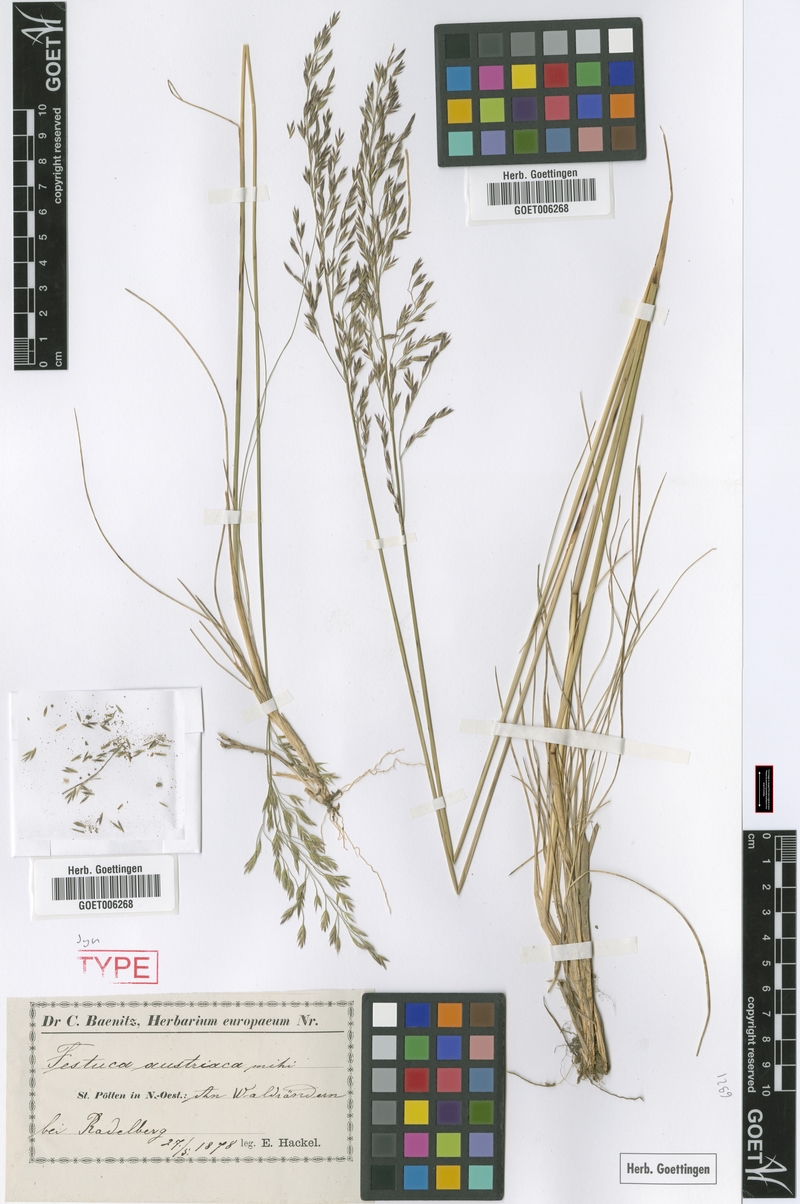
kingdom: Plantae
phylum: Tracheophyta
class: Liliopsida
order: Poales
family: Poaceae
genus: Festuca
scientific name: Festuca amethystina
